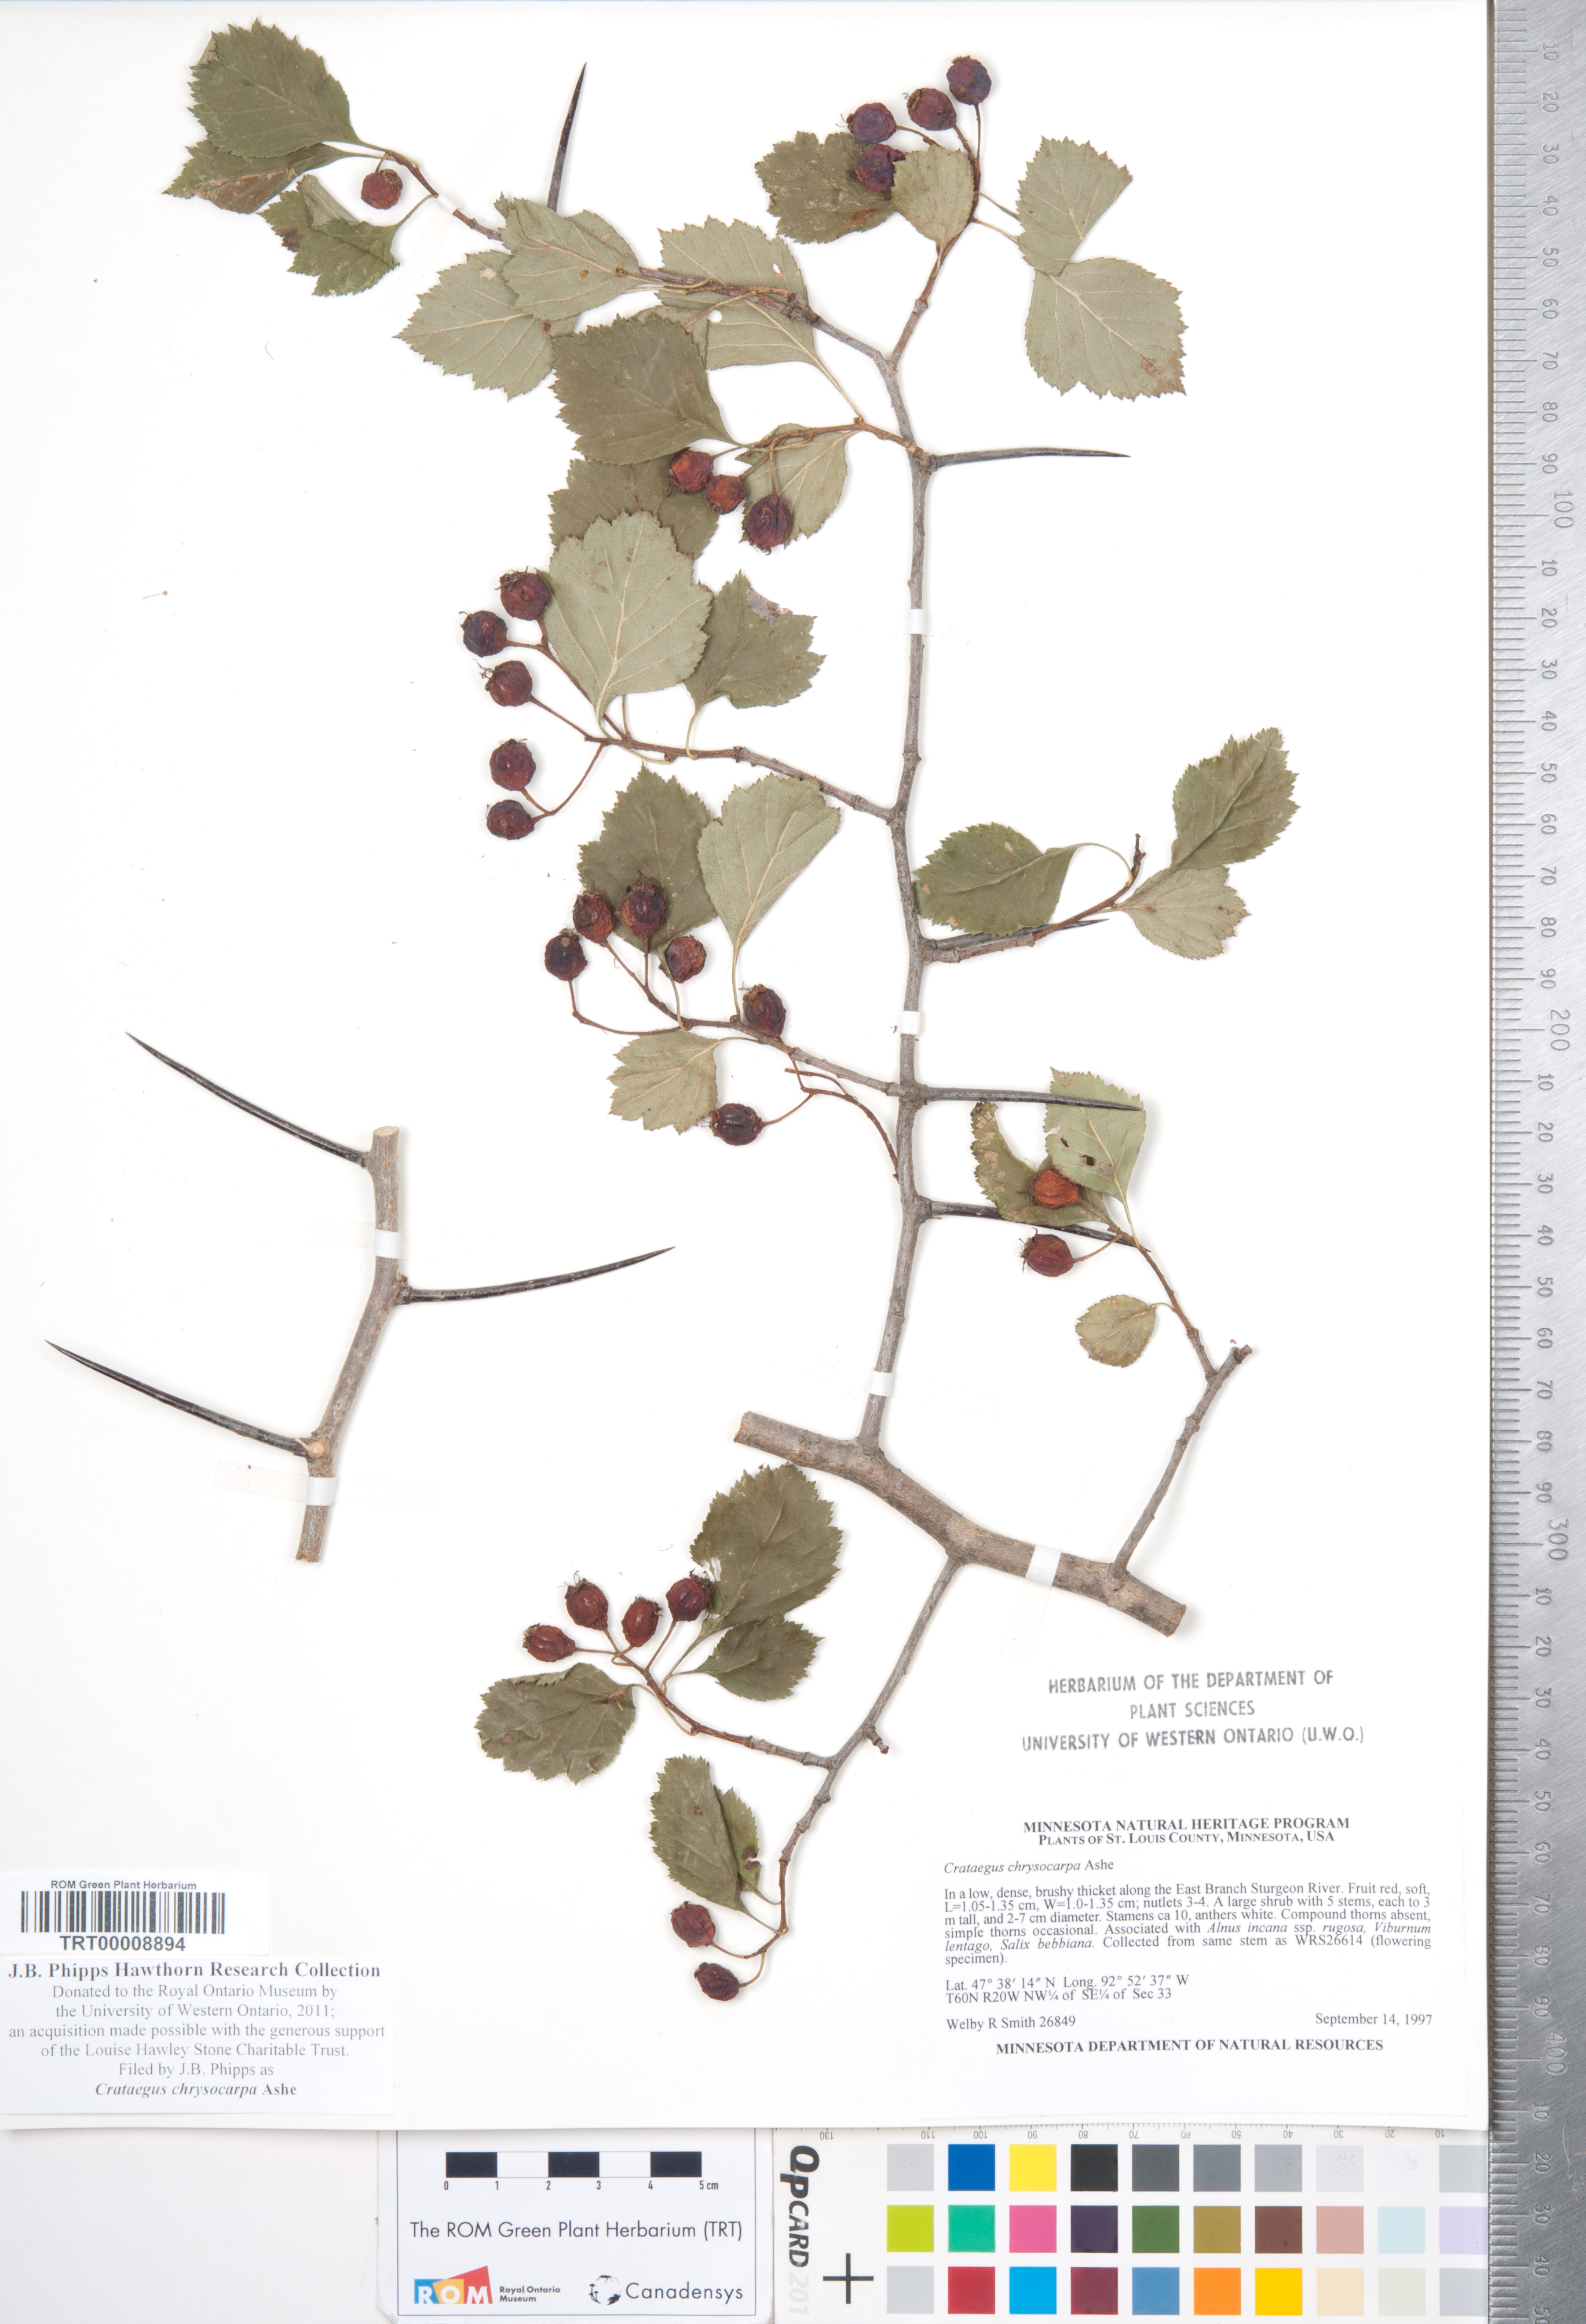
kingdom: Plantae
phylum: Tracheophyta
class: Magnoliopsida
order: Rosales
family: Rosaceae
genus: Crataegus
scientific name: Crataegus chrysocarpa
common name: Fire-berry hawthorn
